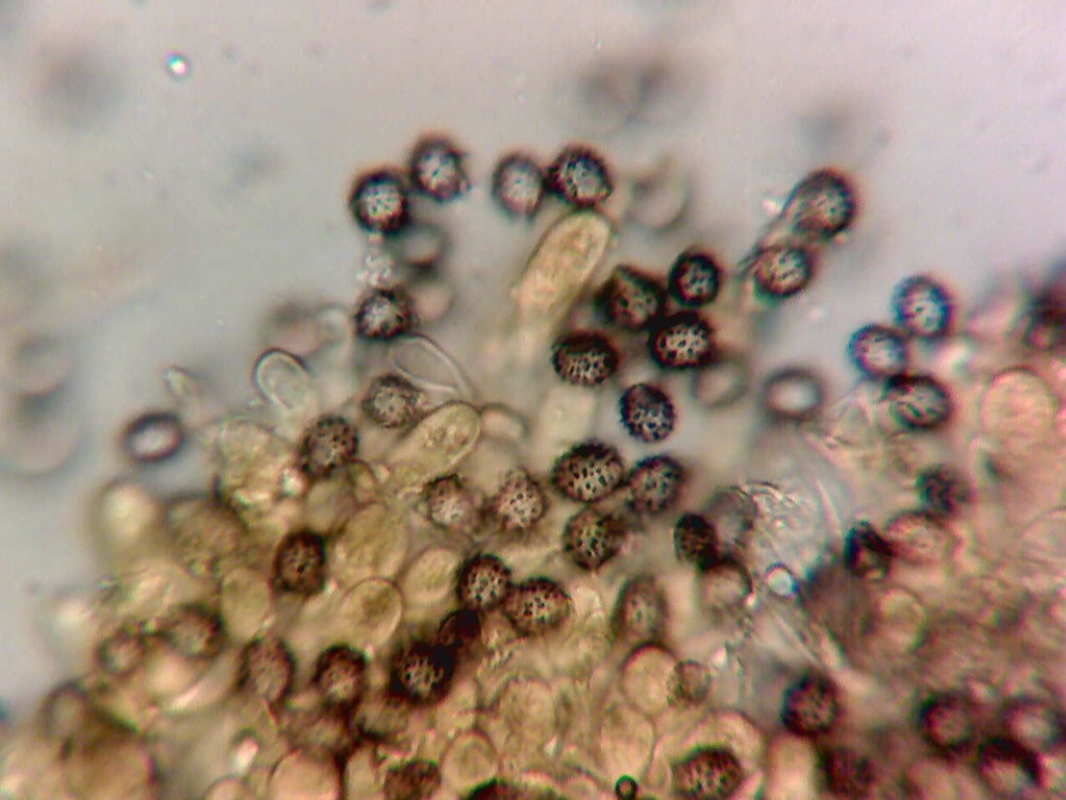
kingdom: Fungi
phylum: Basidiomycota
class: Agaricomycetes
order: Russulales
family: Russulaceae
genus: Russula
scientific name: Russula melzeri
